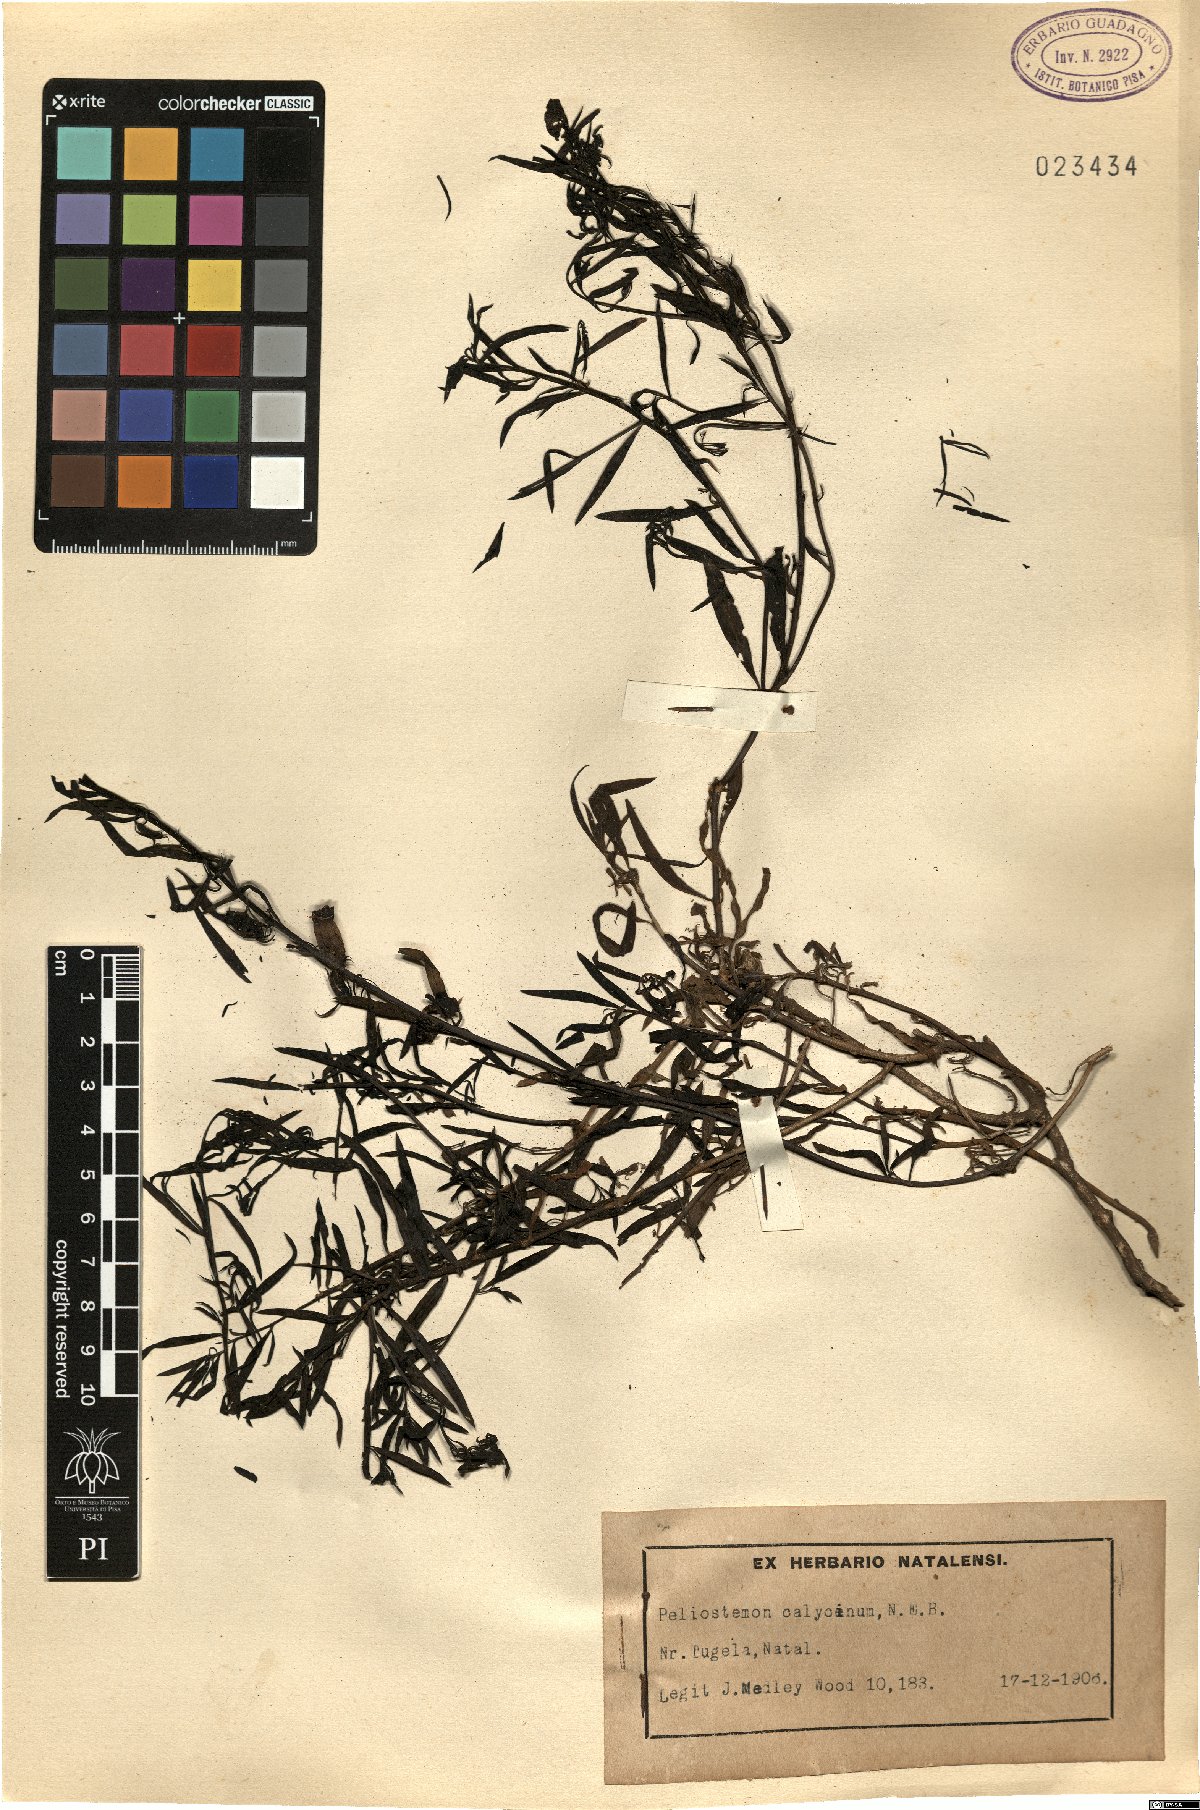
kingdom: Plantae
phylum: Tracheophyta
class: Magnoliopsida
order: Lamiales
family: Scrophulariaceae
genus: Peliostomum
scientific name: Peliostomum calycinum
